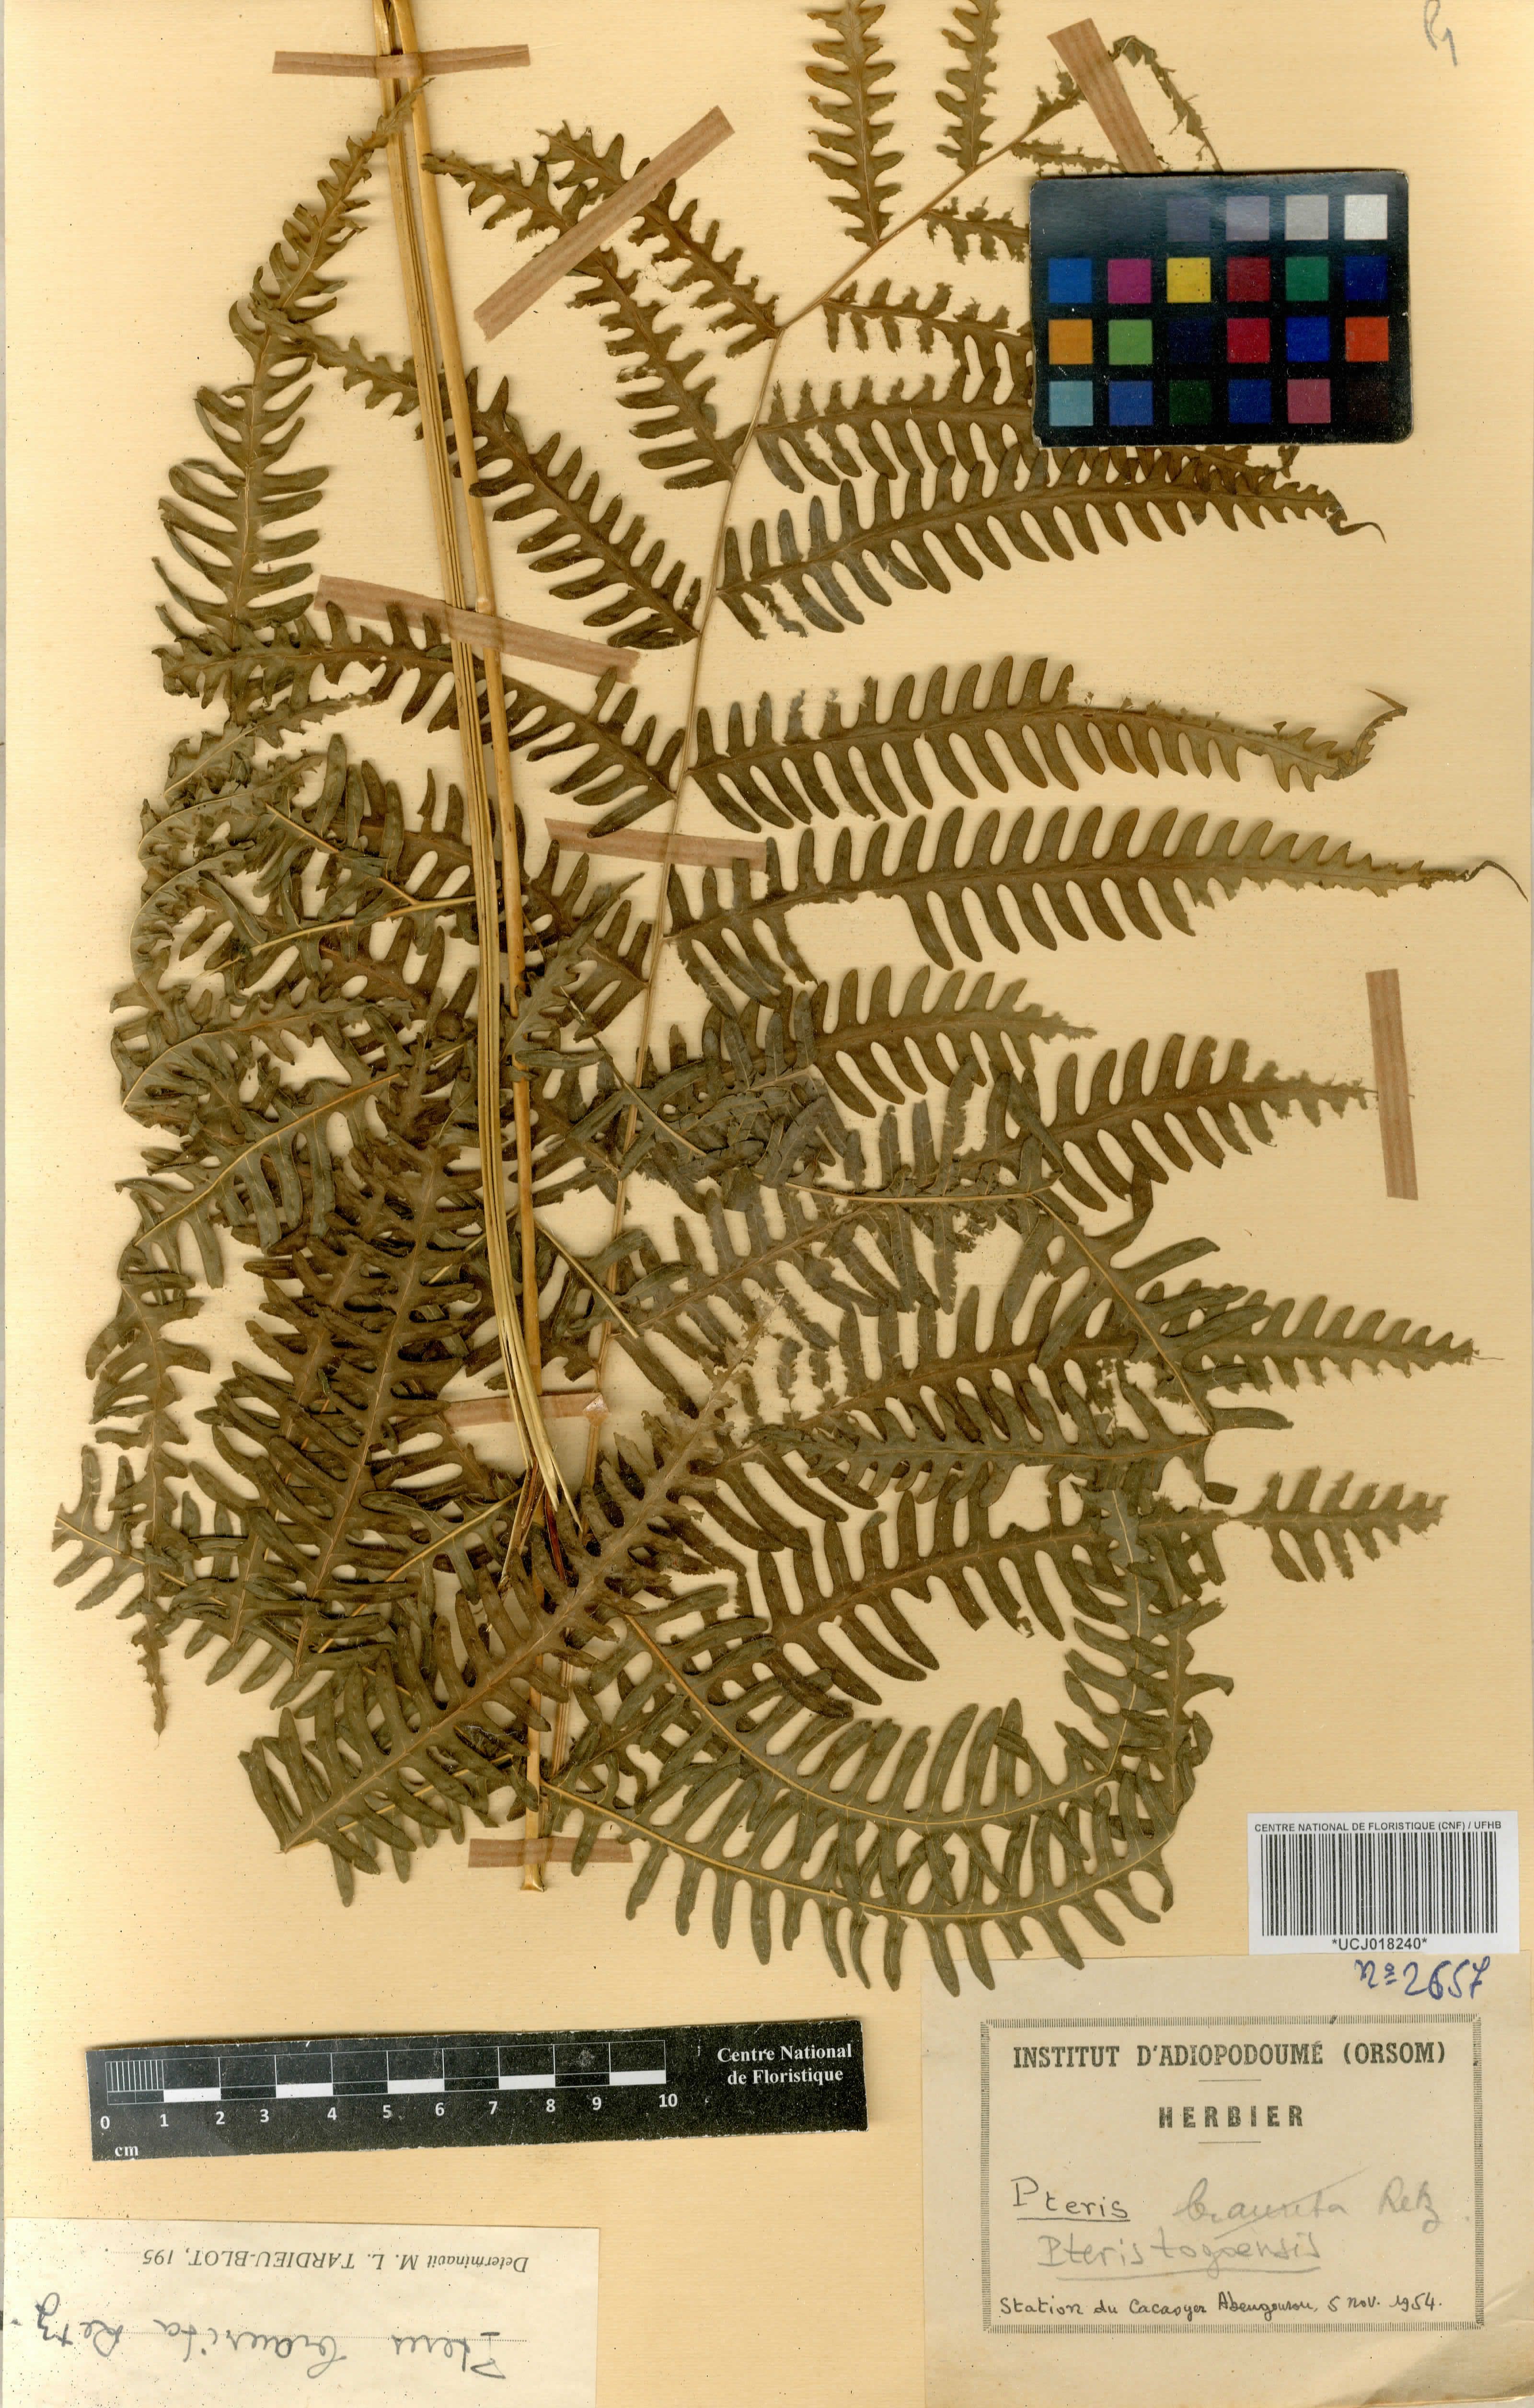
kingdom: Plantae
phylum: Tracheophyta
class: Polypodiopsida
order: Polypodiales
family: Pteridaceae
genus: Pteris
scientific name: Pteris togoensis
